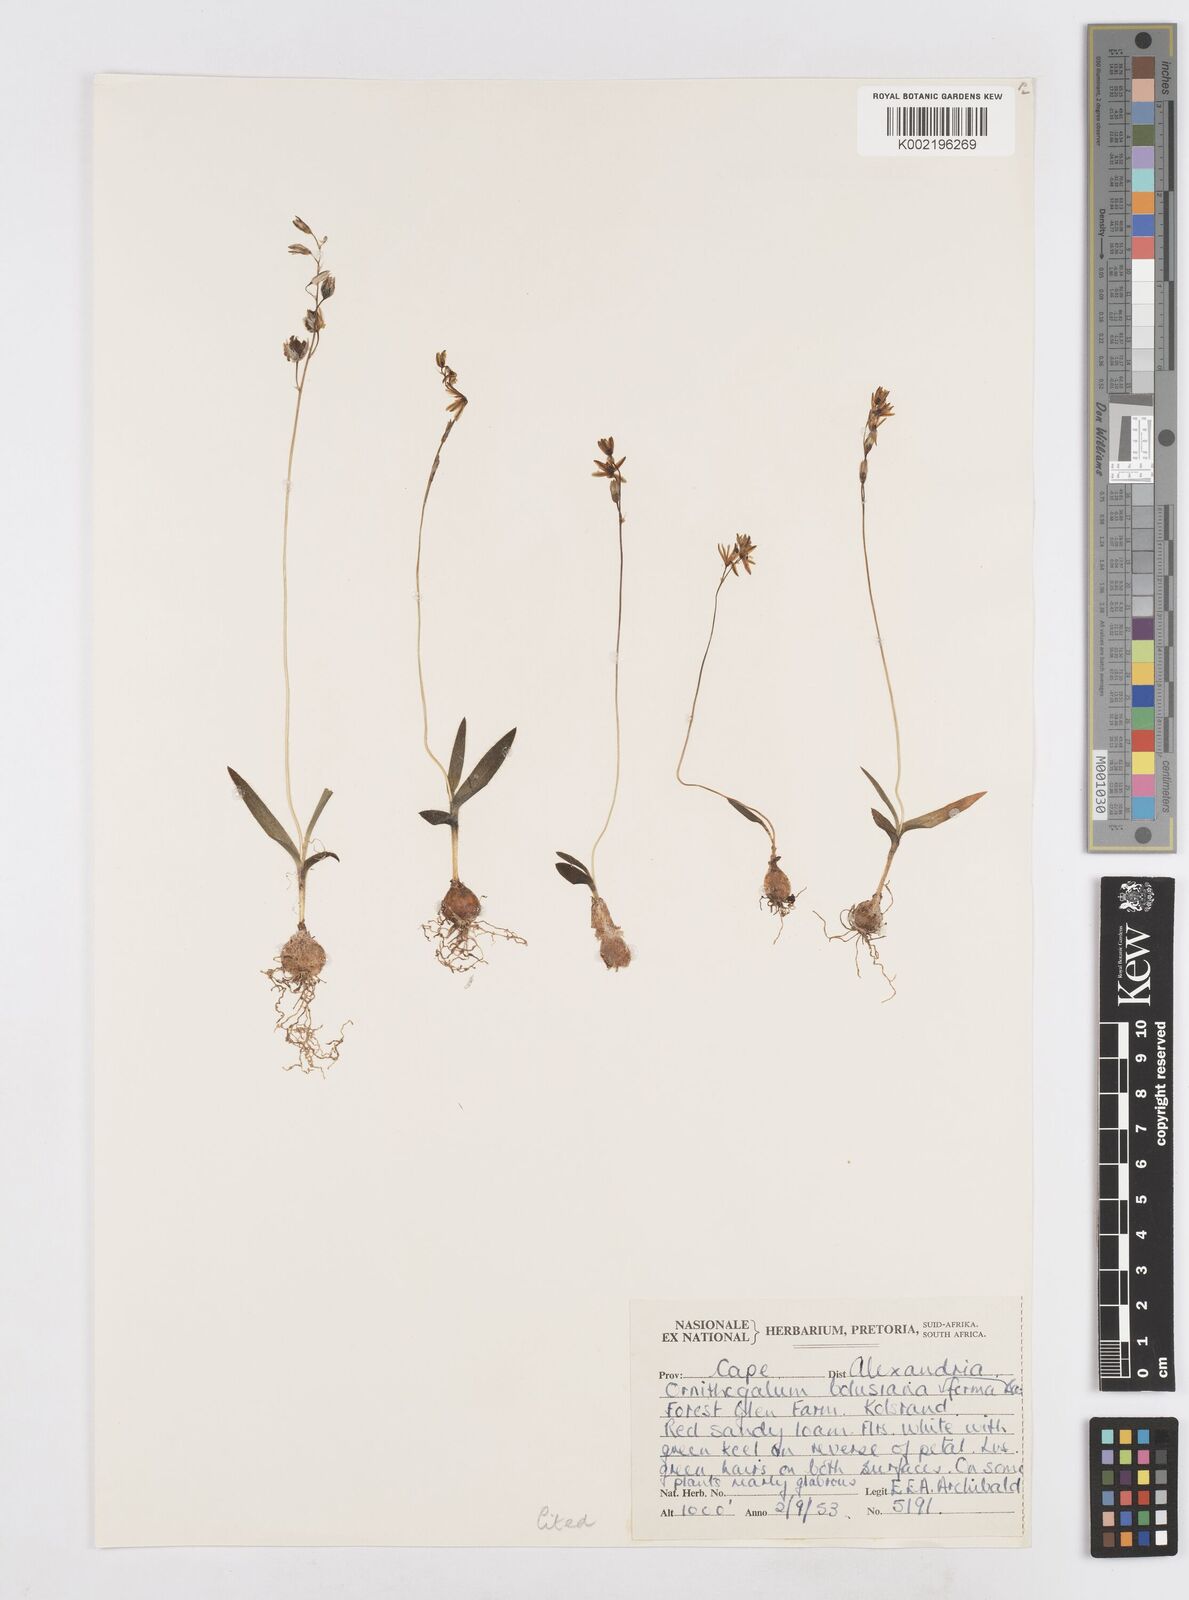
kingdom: Plantae
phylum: Tracheophyta
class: Liliopsida
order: Asparagales
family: Asparagaceae
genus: Ornithogalum
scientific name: Ornithogalum graminifolium
